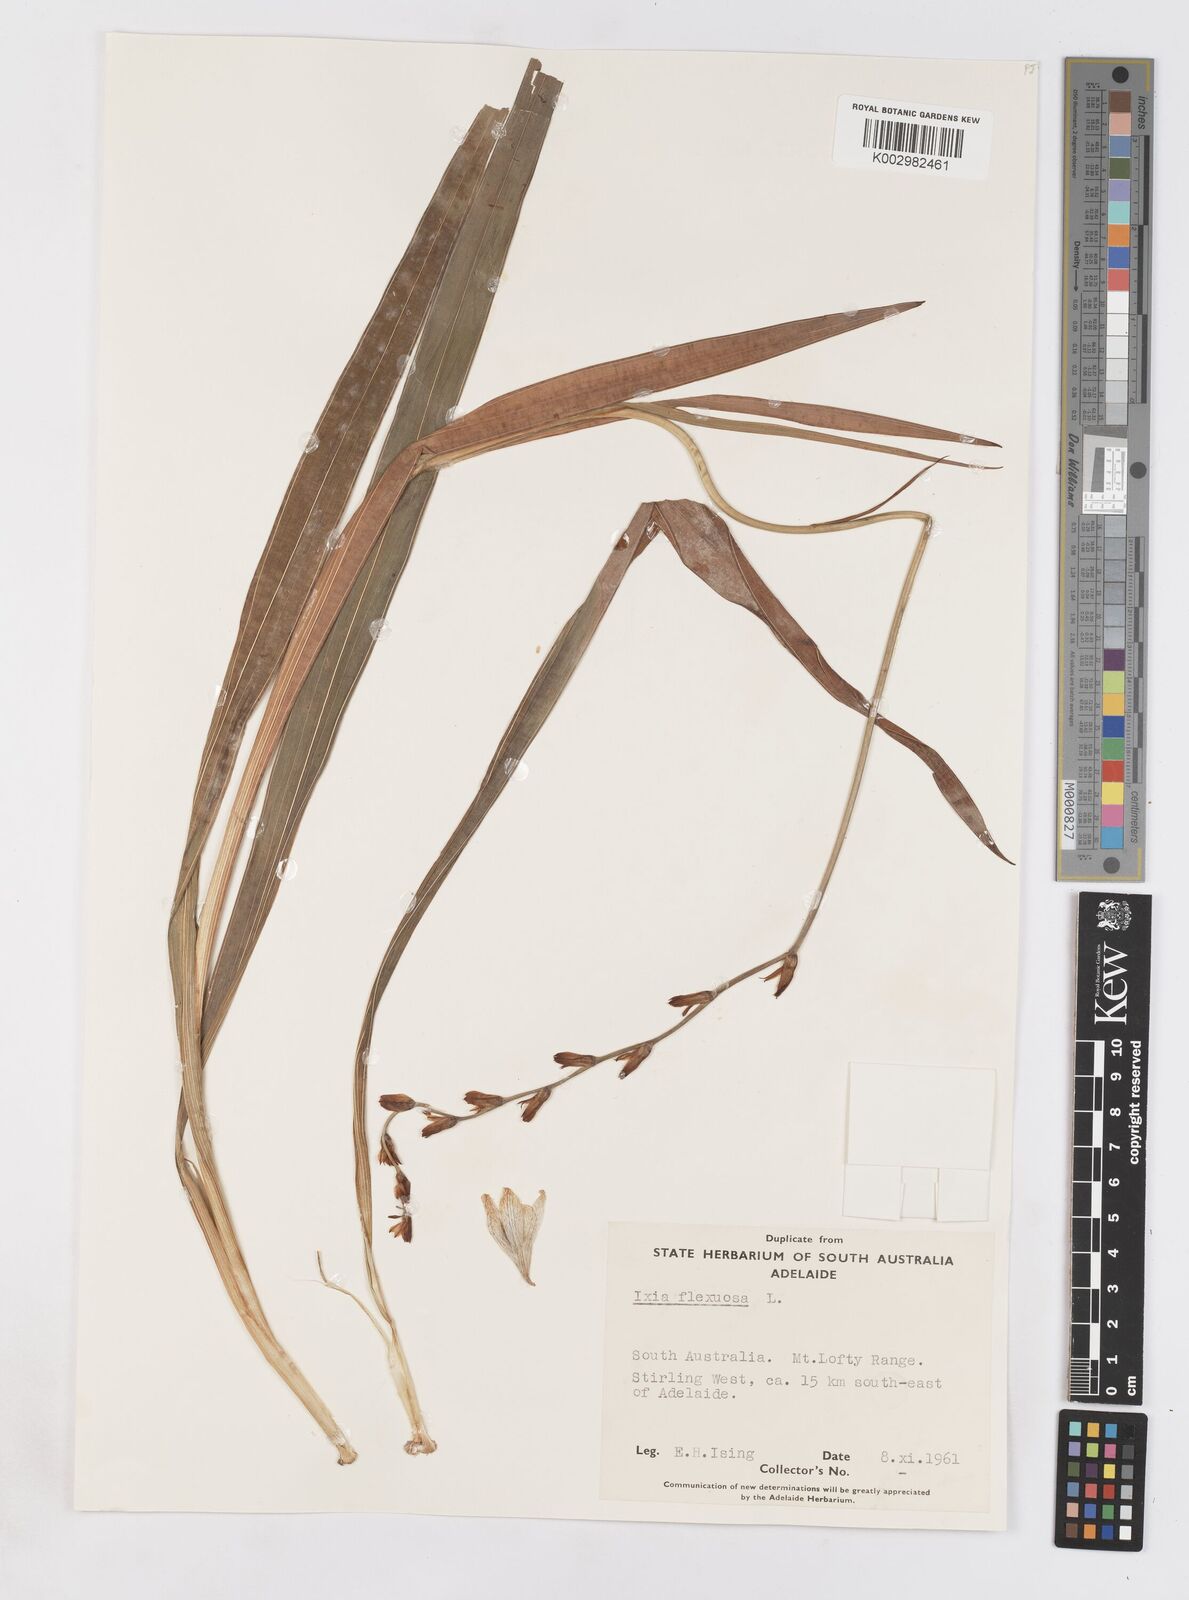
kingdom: Plantae
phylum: Tracheophyta
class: Liliopsida
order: Asparagales
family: Iridaceae
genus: Ixia
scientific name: Ixia flexuosa
